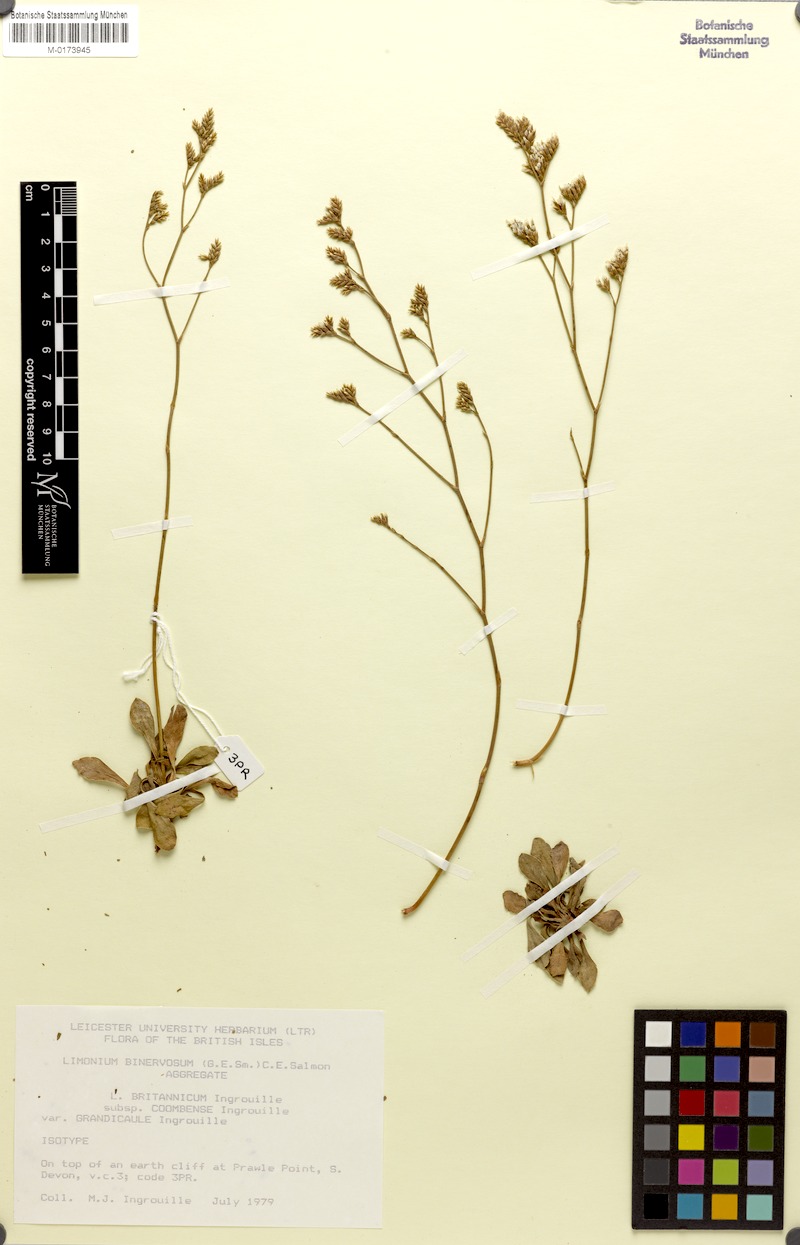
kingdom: Plantae
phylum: Tracheophyta
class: Magnoliopsida
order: Caryophyllales
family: Plumbaginaceae
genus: Limonium
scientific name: Limonium britannicum
